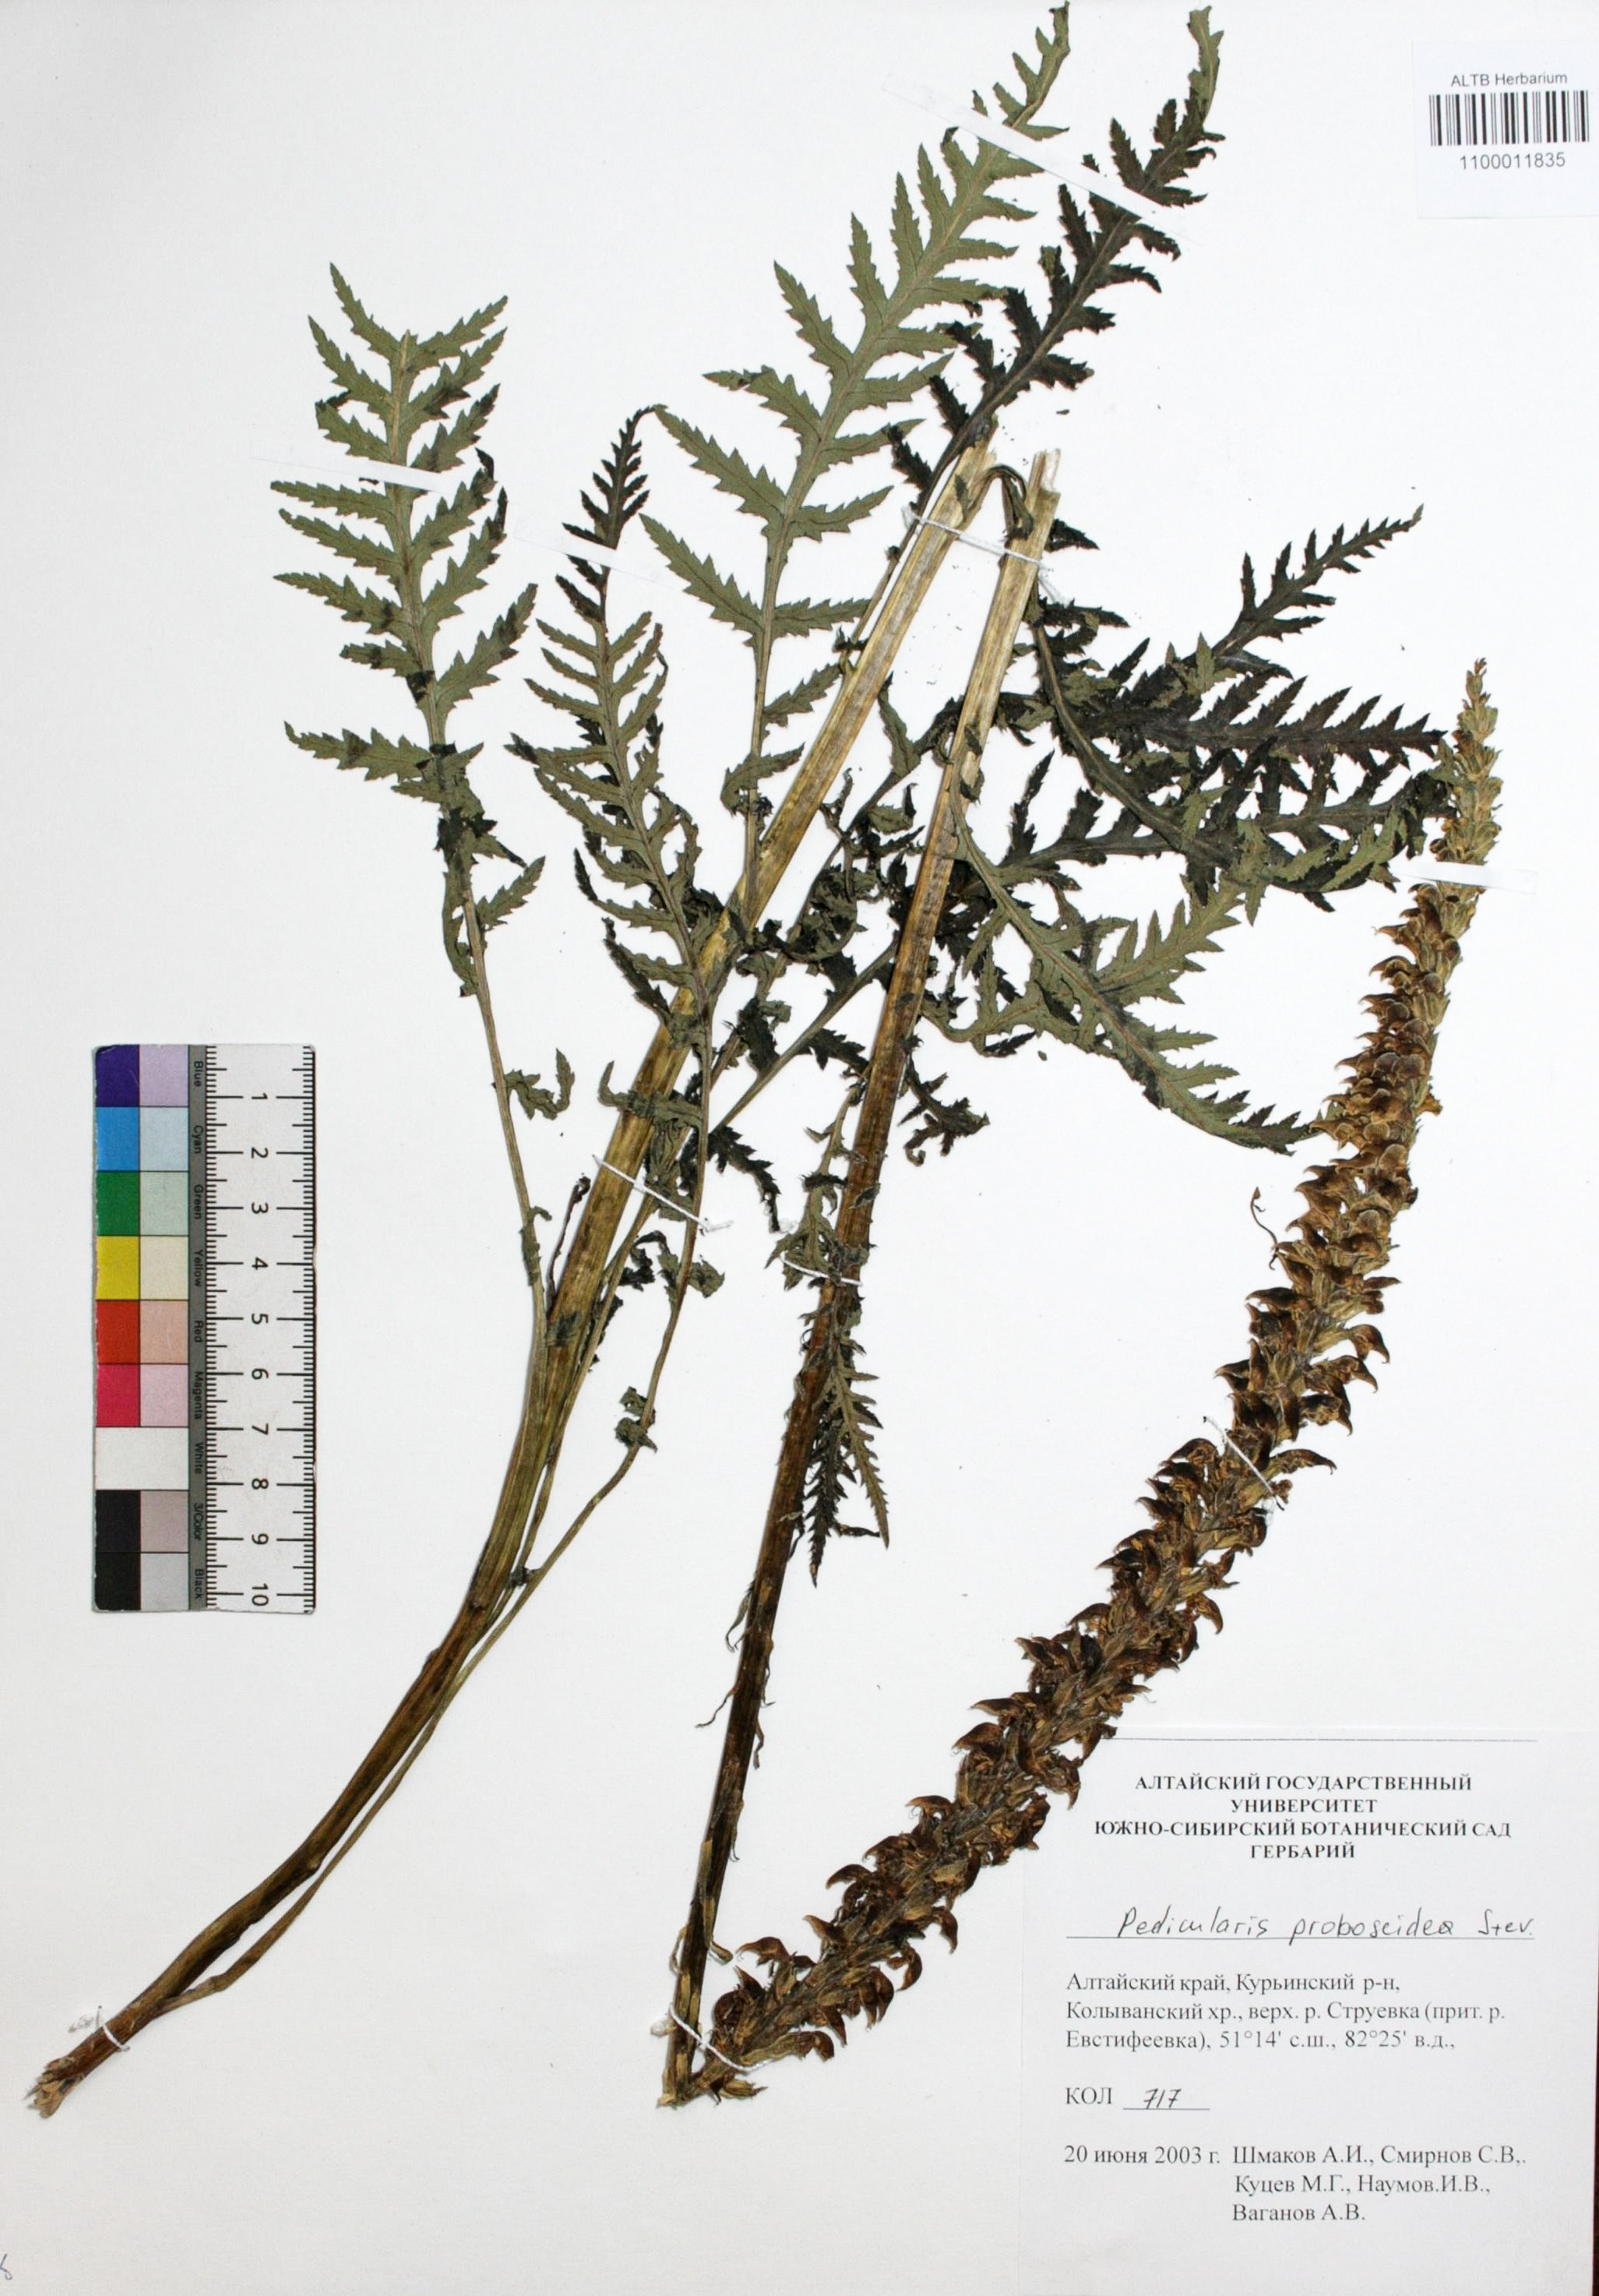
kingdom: Plantae
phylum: Tracheophyta
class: Magnoliopsida
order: Lamiales
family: Orobanchaceae
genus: Pedicularis
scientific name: Pedicularis proboscidea
